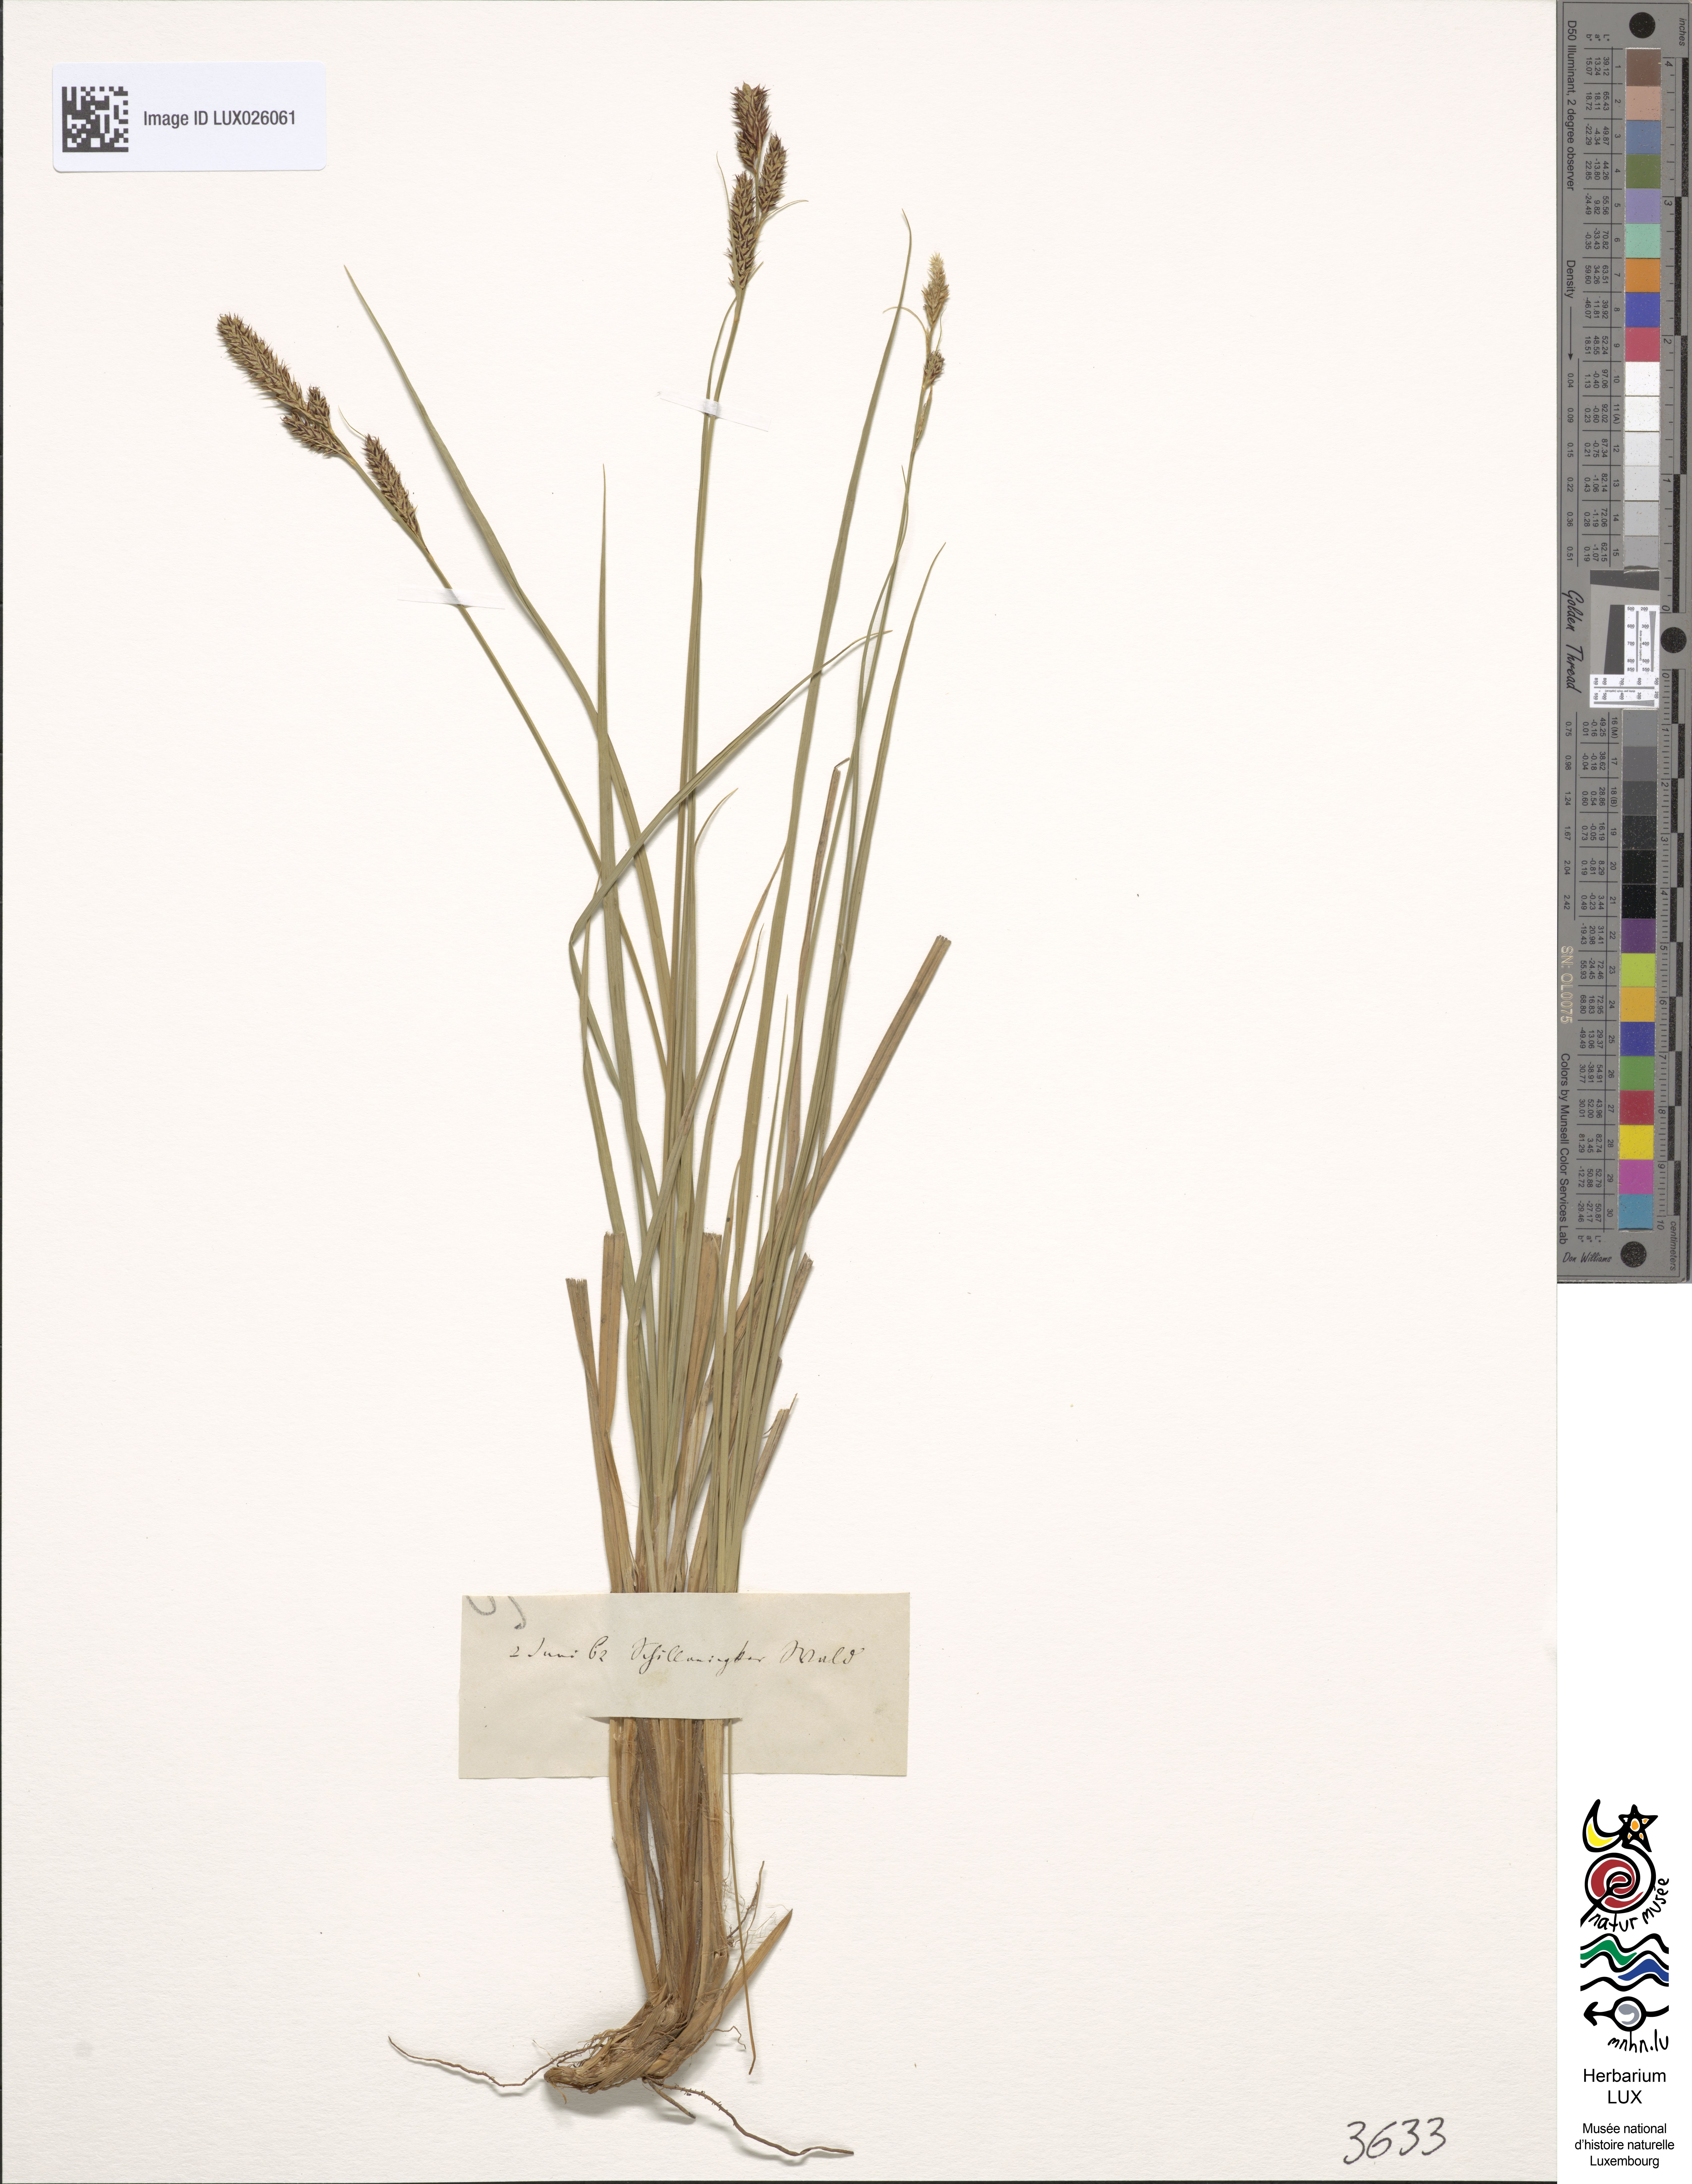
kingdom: Plantae
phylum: Tracheophyta
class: Liliopsida
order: Poales
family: Cyperaceae
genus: Carex
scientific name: Carex buxbaumii
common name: Club sedge
